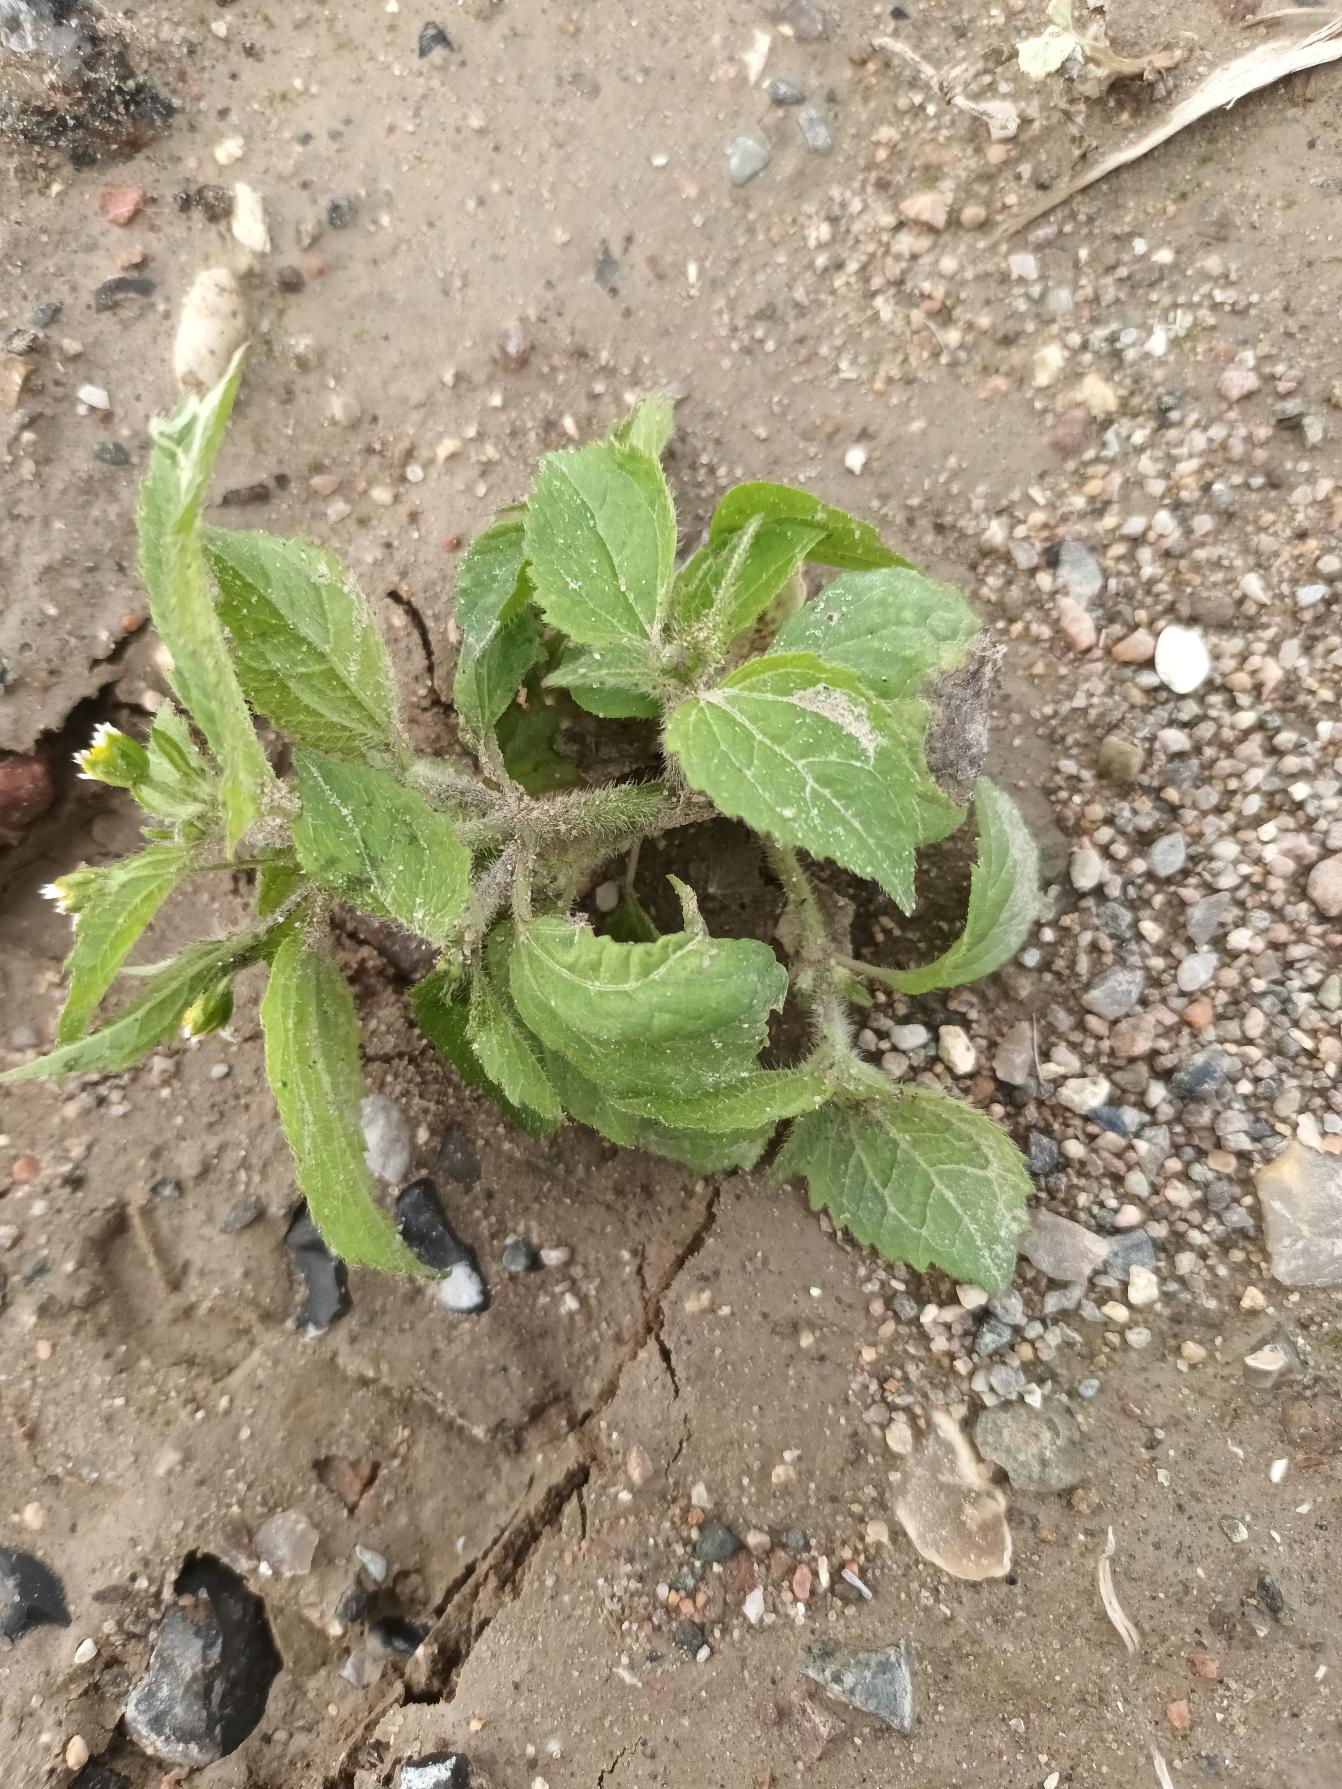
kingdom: Plantae
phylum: Tracheophyta
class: Magnoliopsida
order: Asterales
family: Asteraceae
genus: Galinsoga
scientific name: Galinsoga quadriradiata
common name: Kirtel-kortstråle
